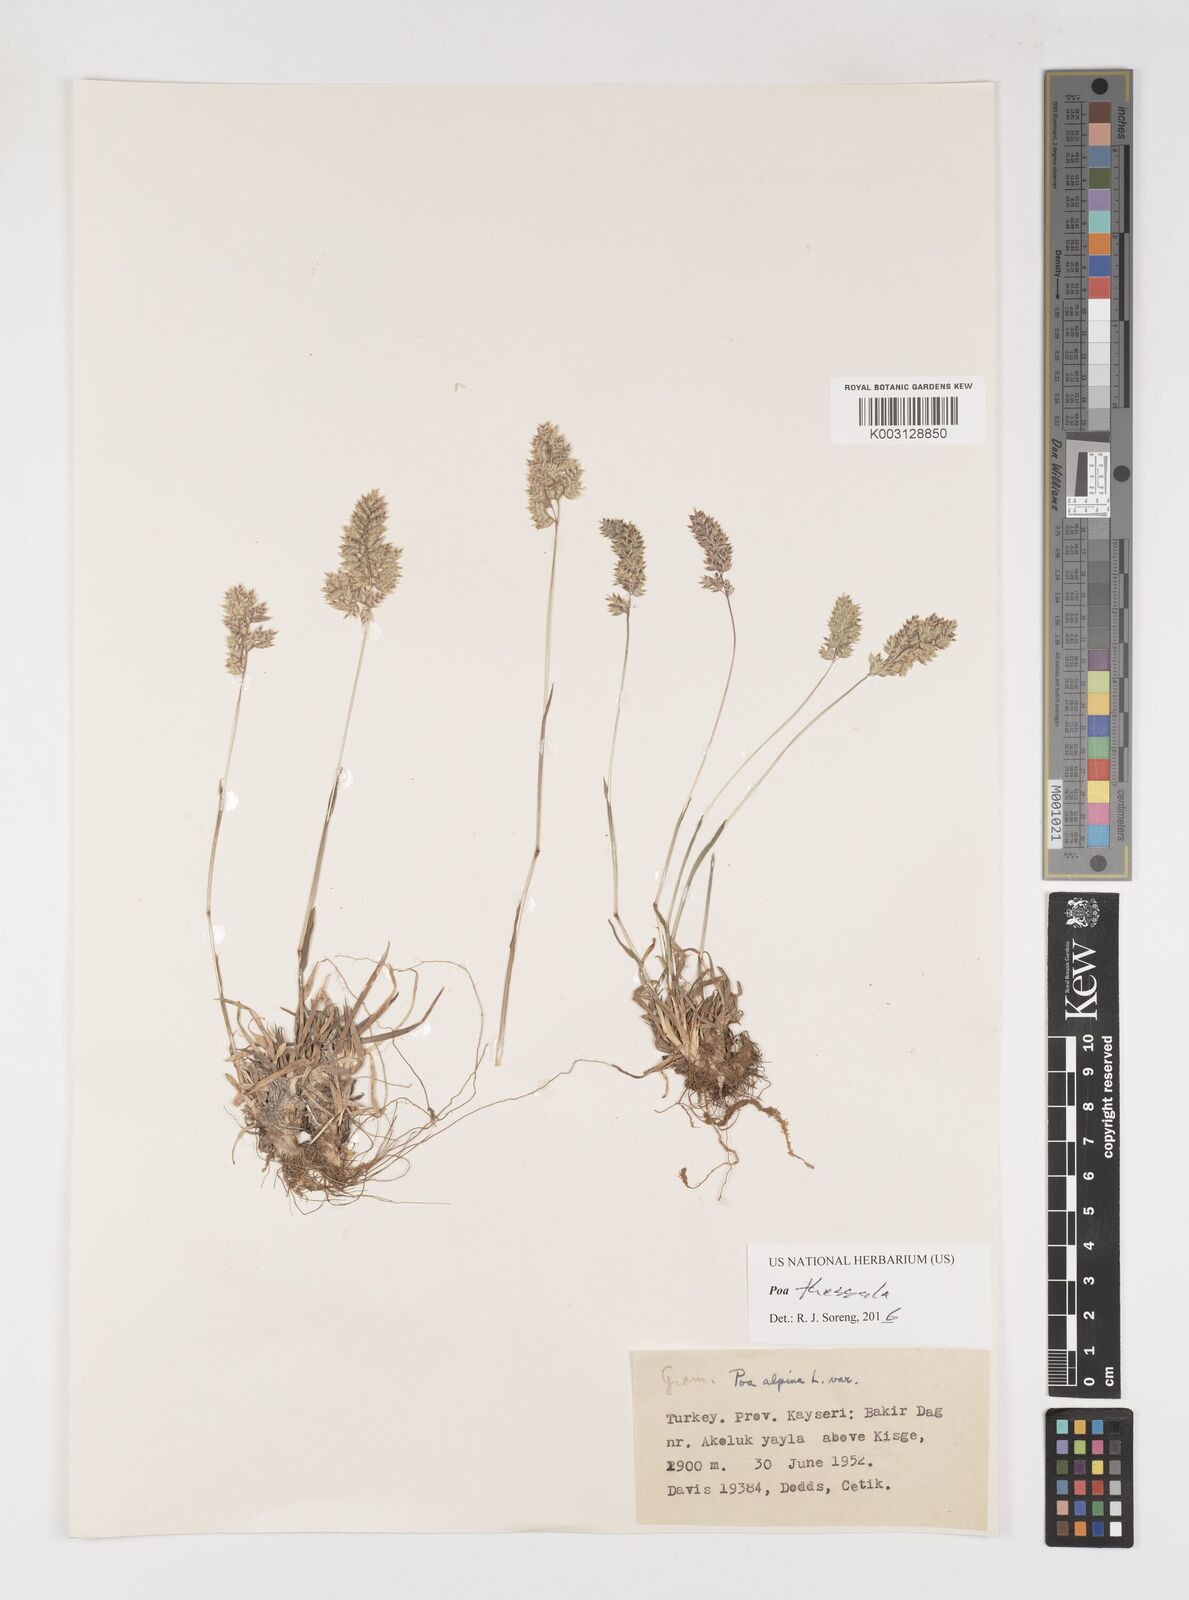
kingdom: Plantae
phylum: Tracheophyta
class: Liliopsida
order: Poales
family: Poaceae
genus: Poa
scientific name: Poa thessala
